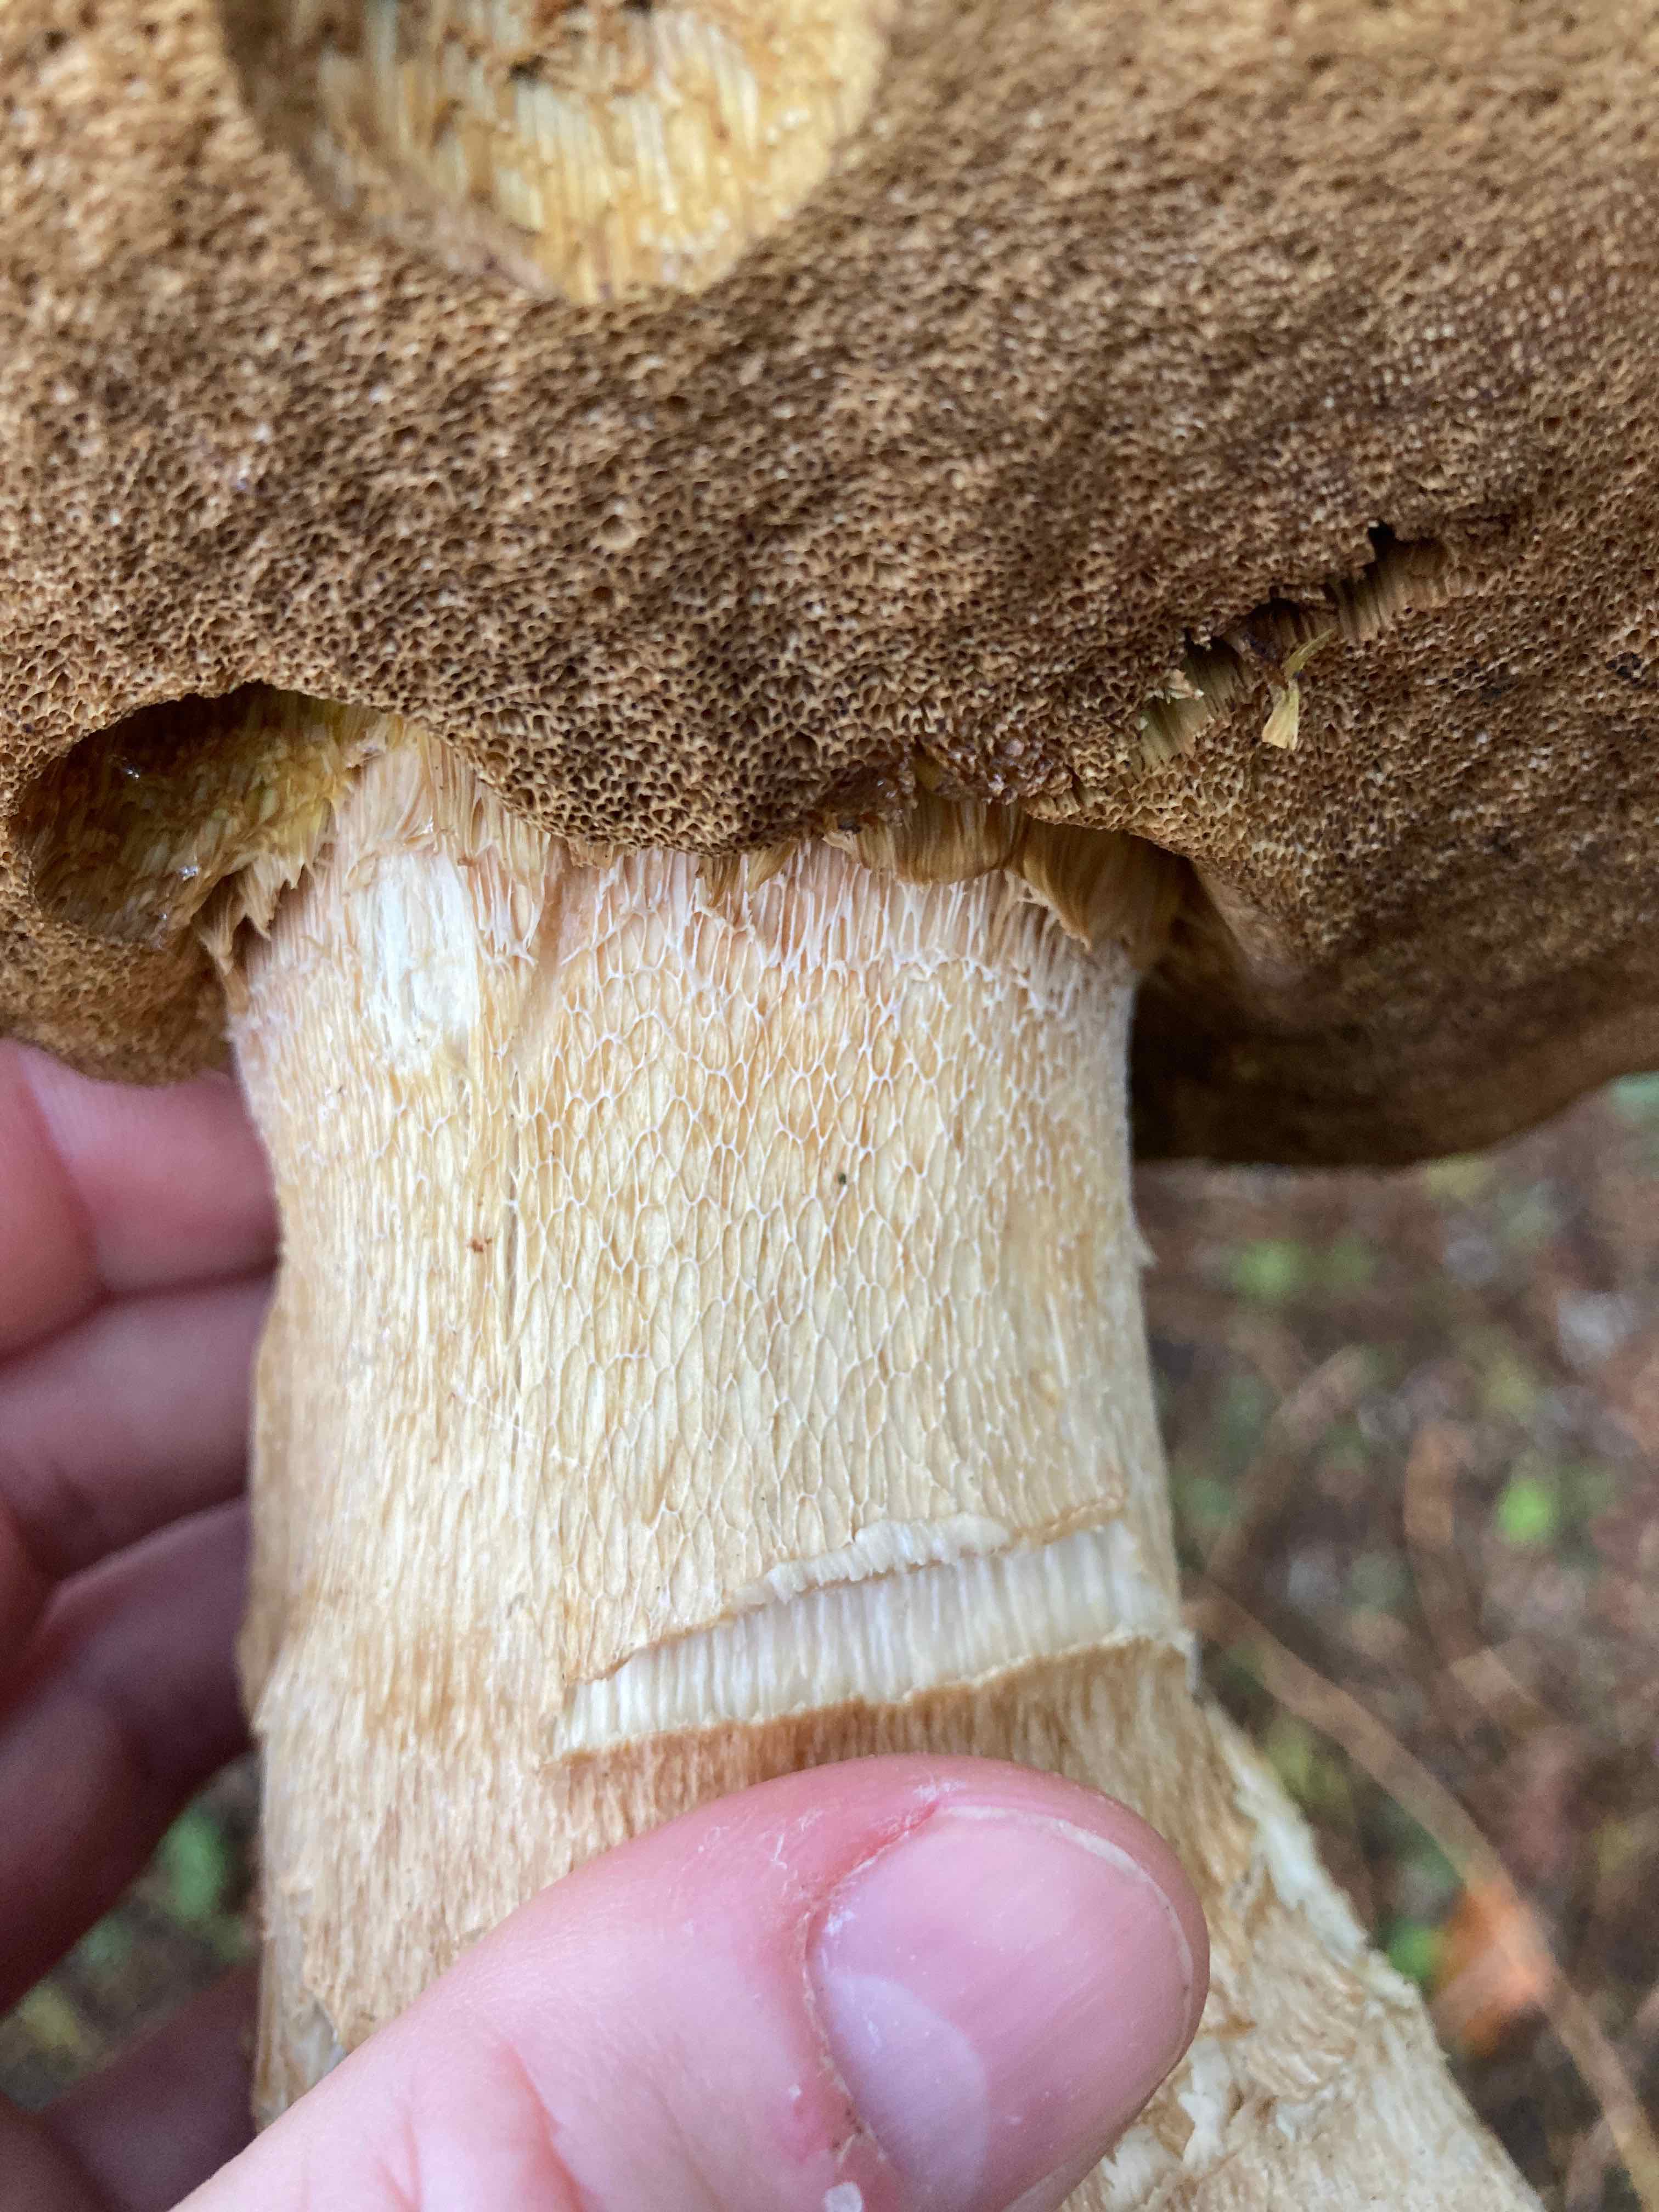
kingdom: Fungi
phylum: Basidiomycota
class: Agaricomycetes
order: Boletales
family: Boletaceae
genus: Boletus
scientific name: Boletus edulis
